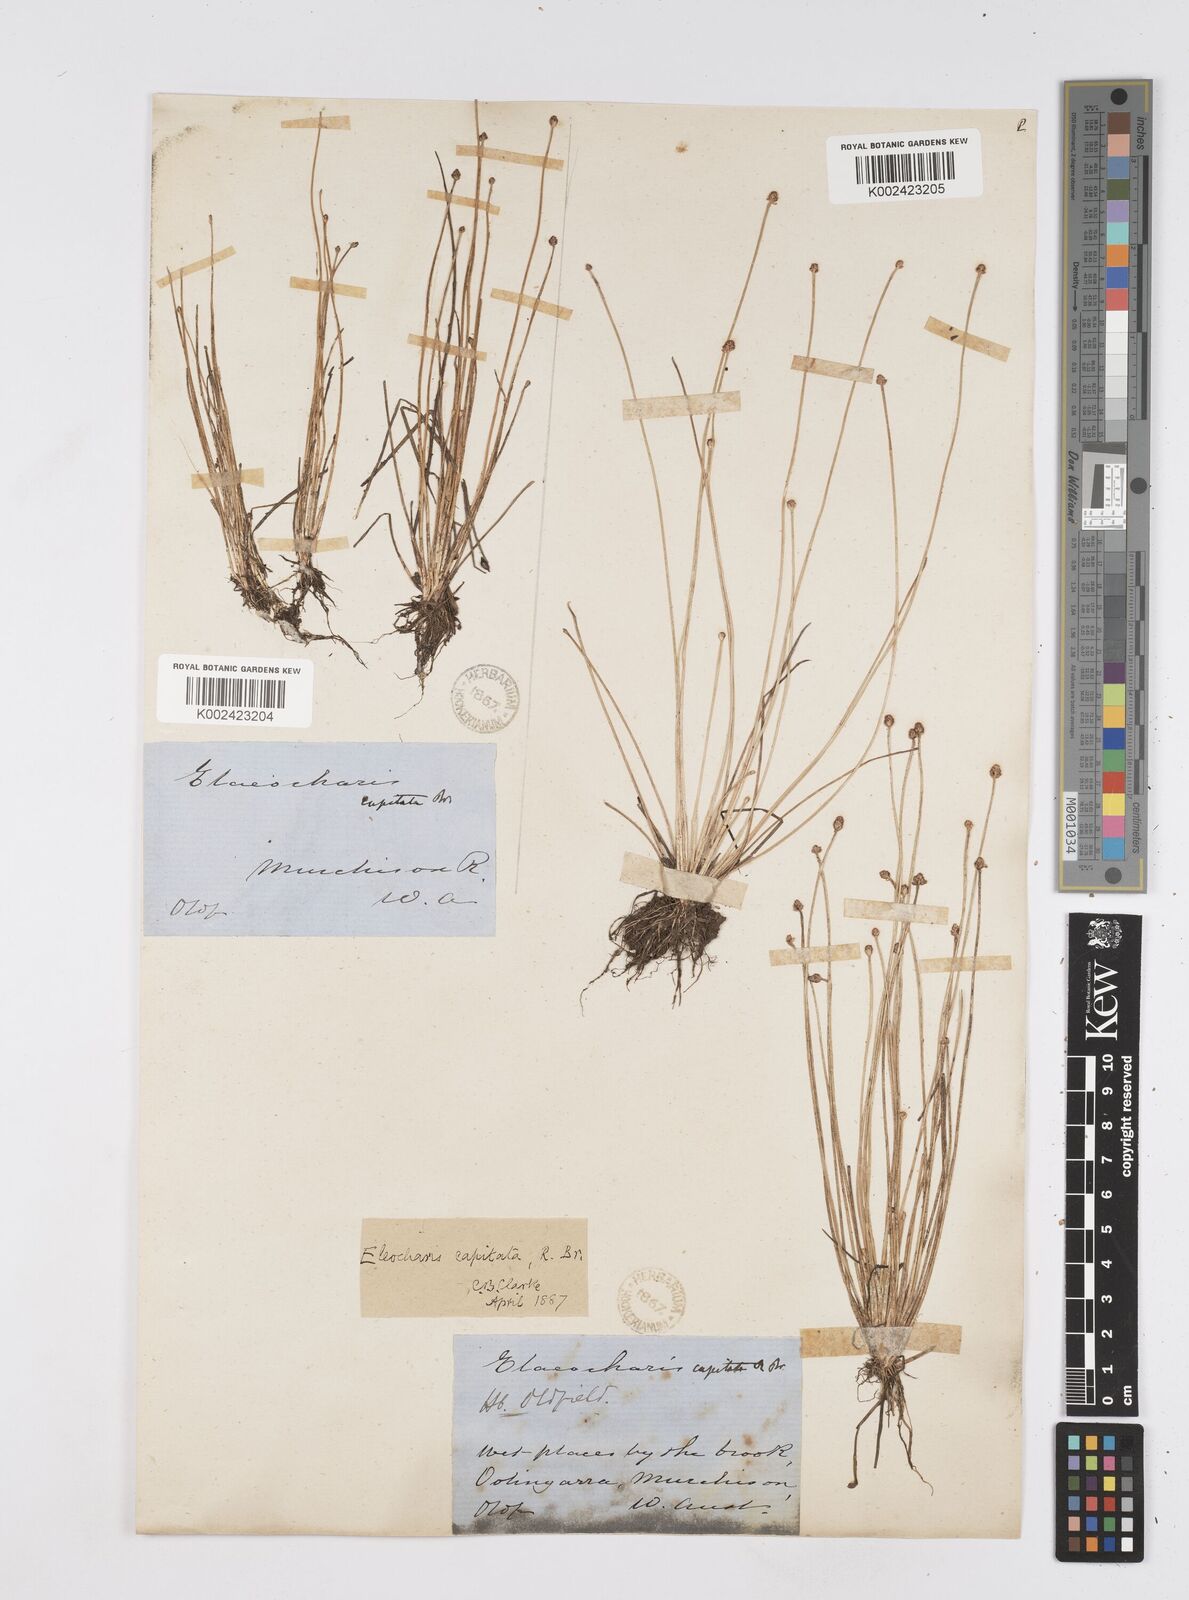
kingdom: Plantae
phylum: Tracheophyta
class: Liliopsida
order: Poales
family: Cyperaceae
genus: Eleocharis
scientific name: Eleocharis geniculata
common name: Canada spikesedge
